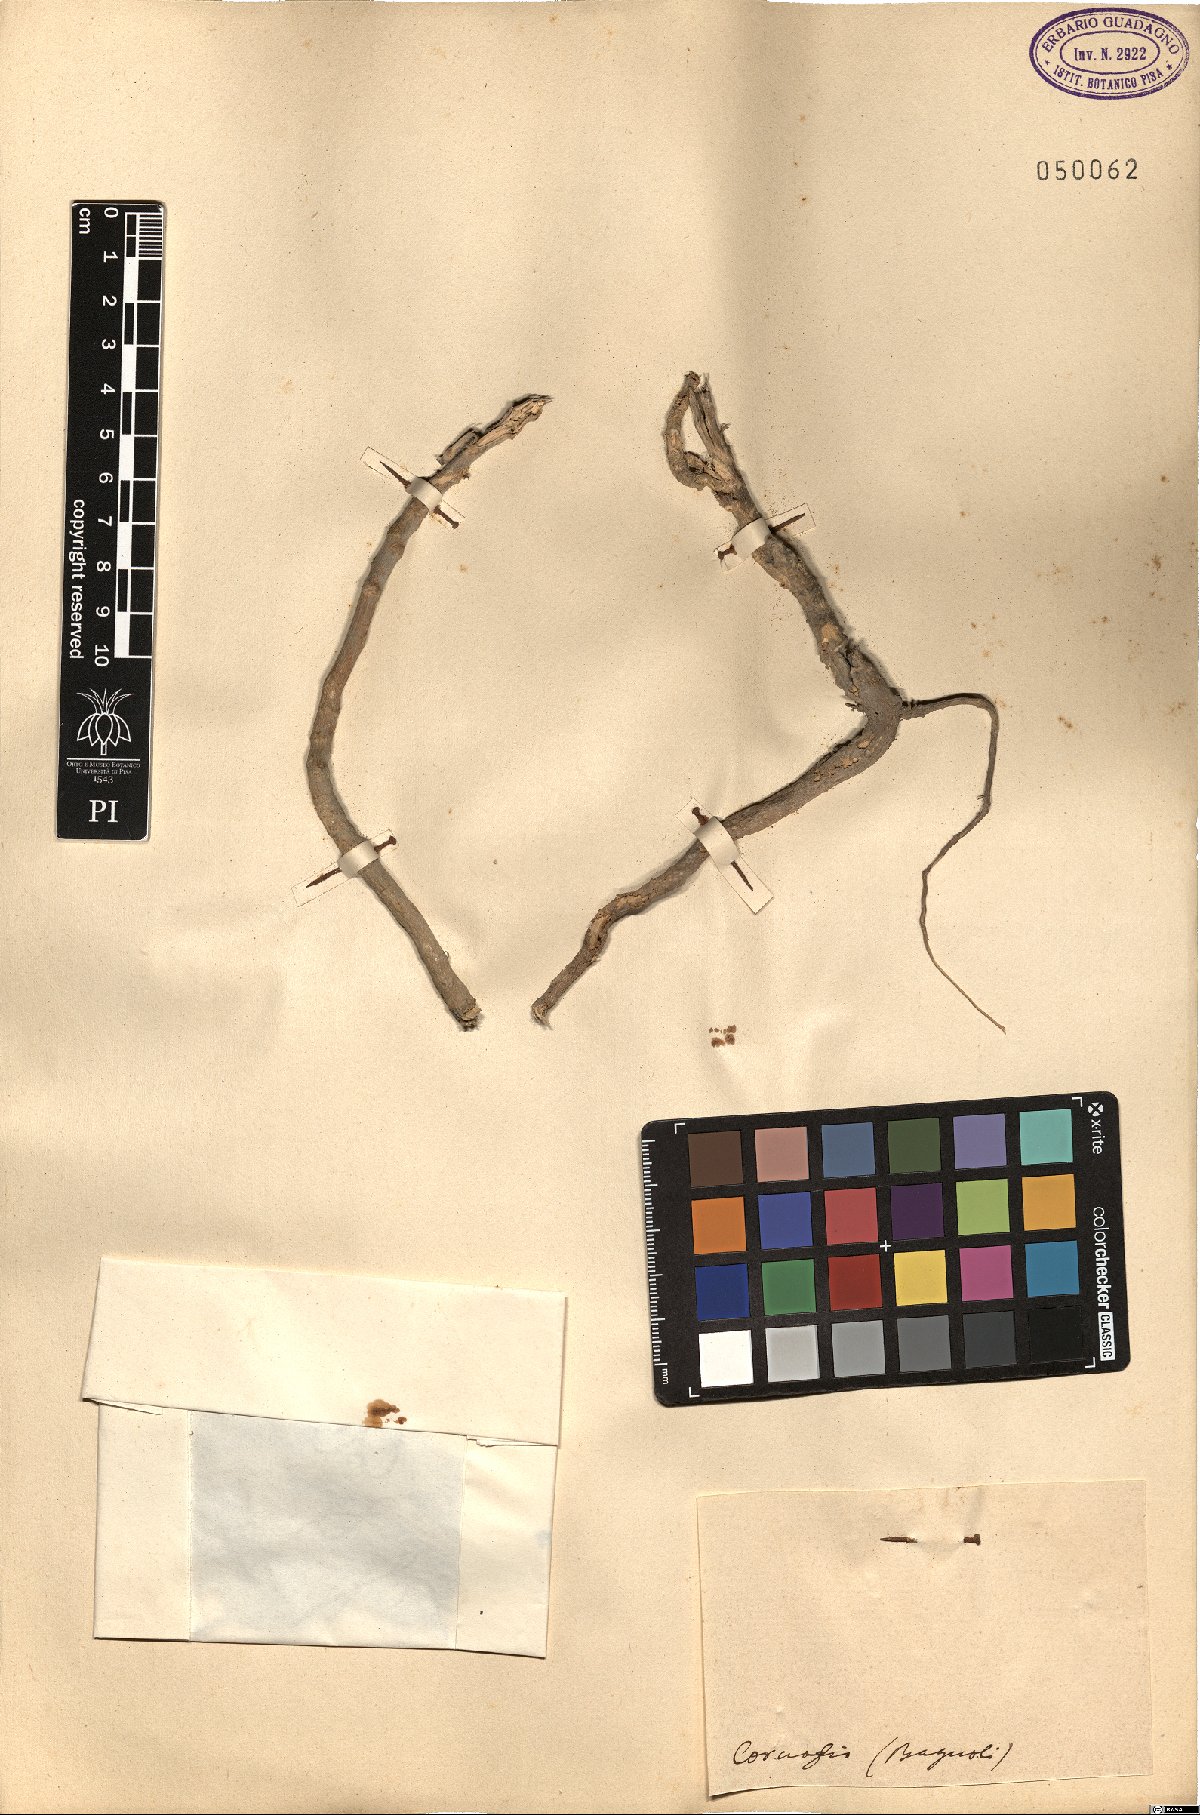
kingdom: Plantae
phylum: Tracheophyta
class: Magnoliopsida
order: Brassicales
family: Brassicaceae
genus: Brassica
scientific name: Brassica
